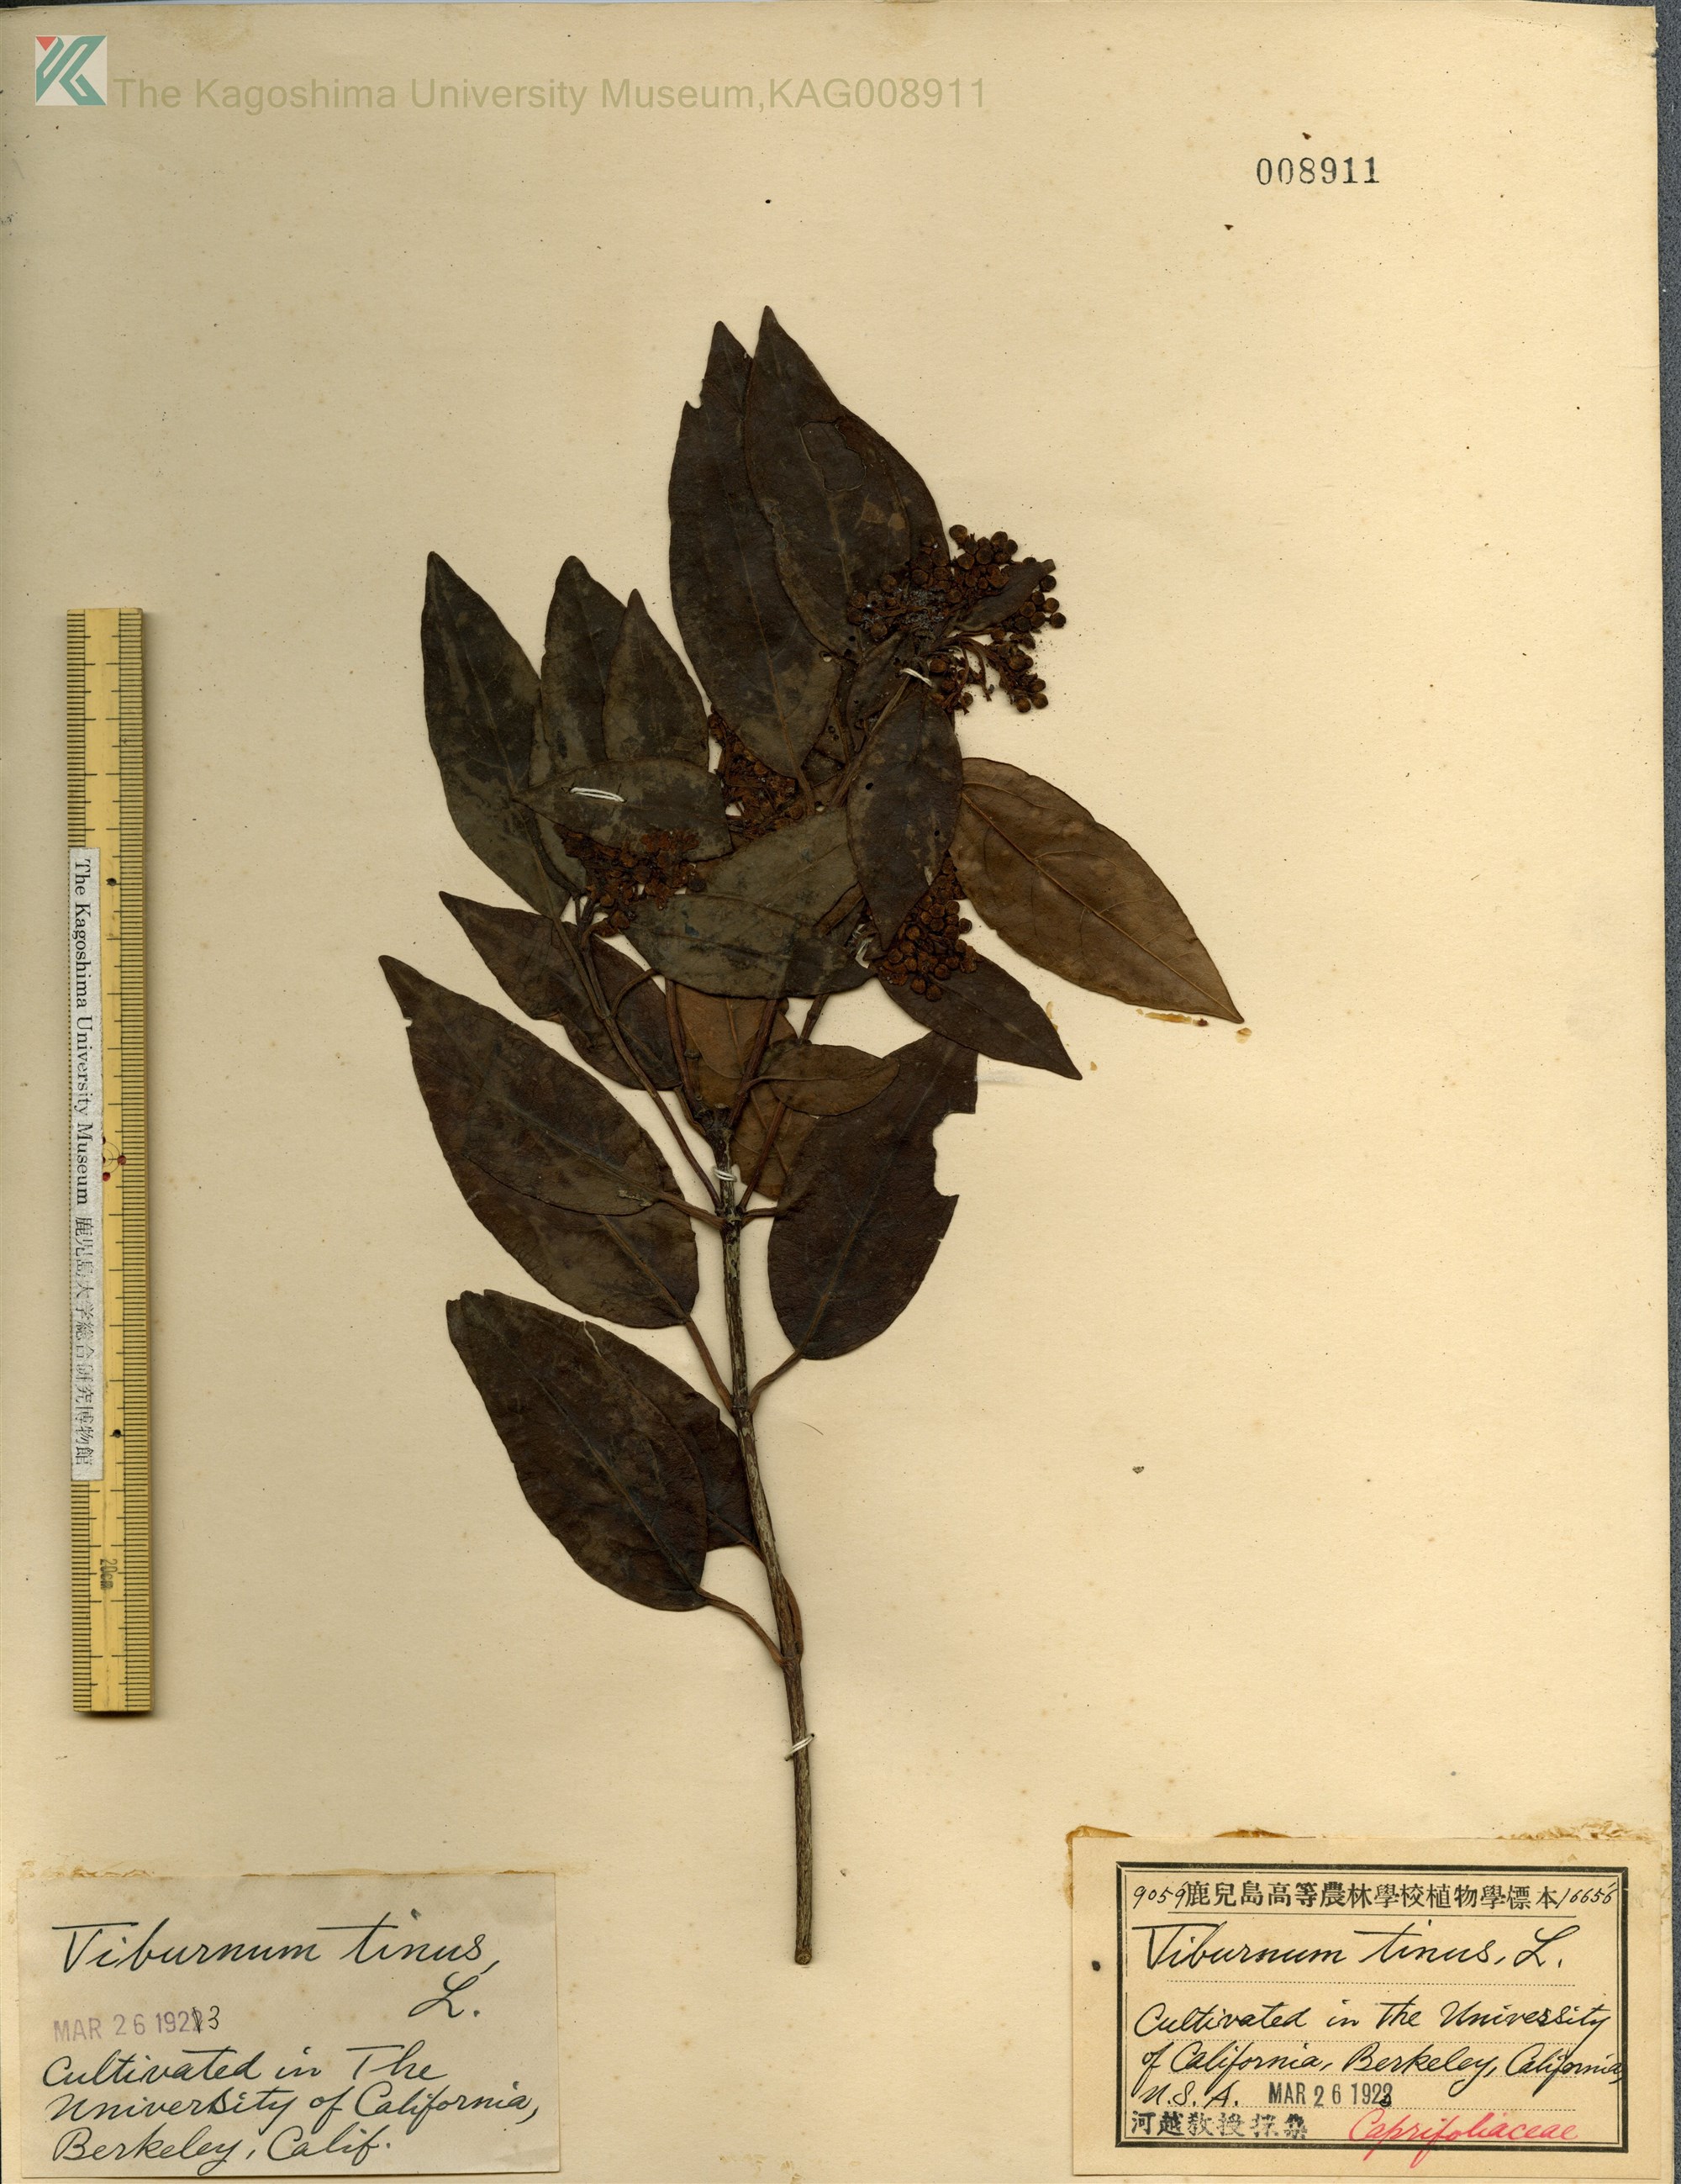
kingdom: Plantae
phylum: Tracheophyta
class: Magnoliopsida
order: Dipsacales
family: Viburnaceae
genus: Viburnum
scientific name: Viburnum urceolatum
